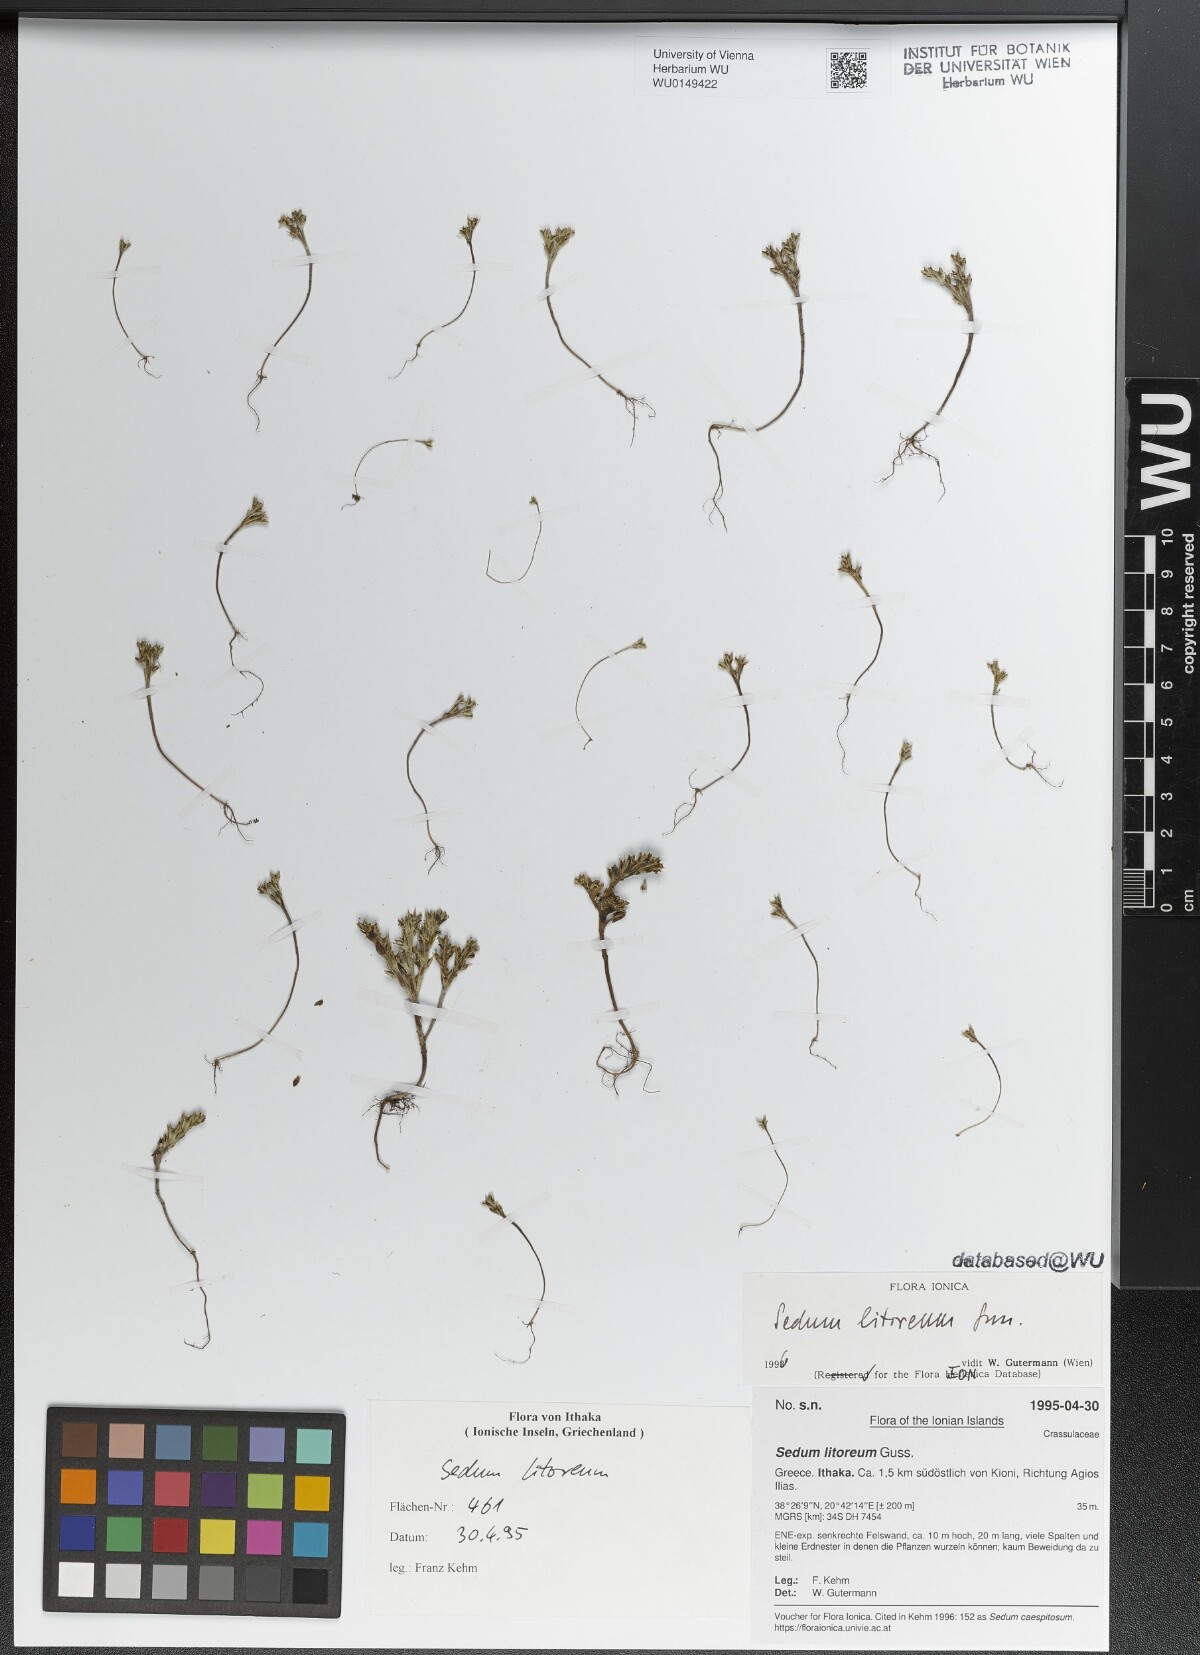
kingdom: Plantae
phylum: Tracheophyta
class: Magnoliopsida
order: Saxifragales
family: Crassulaceae
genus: Sedum
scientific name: Sedum litoreum
